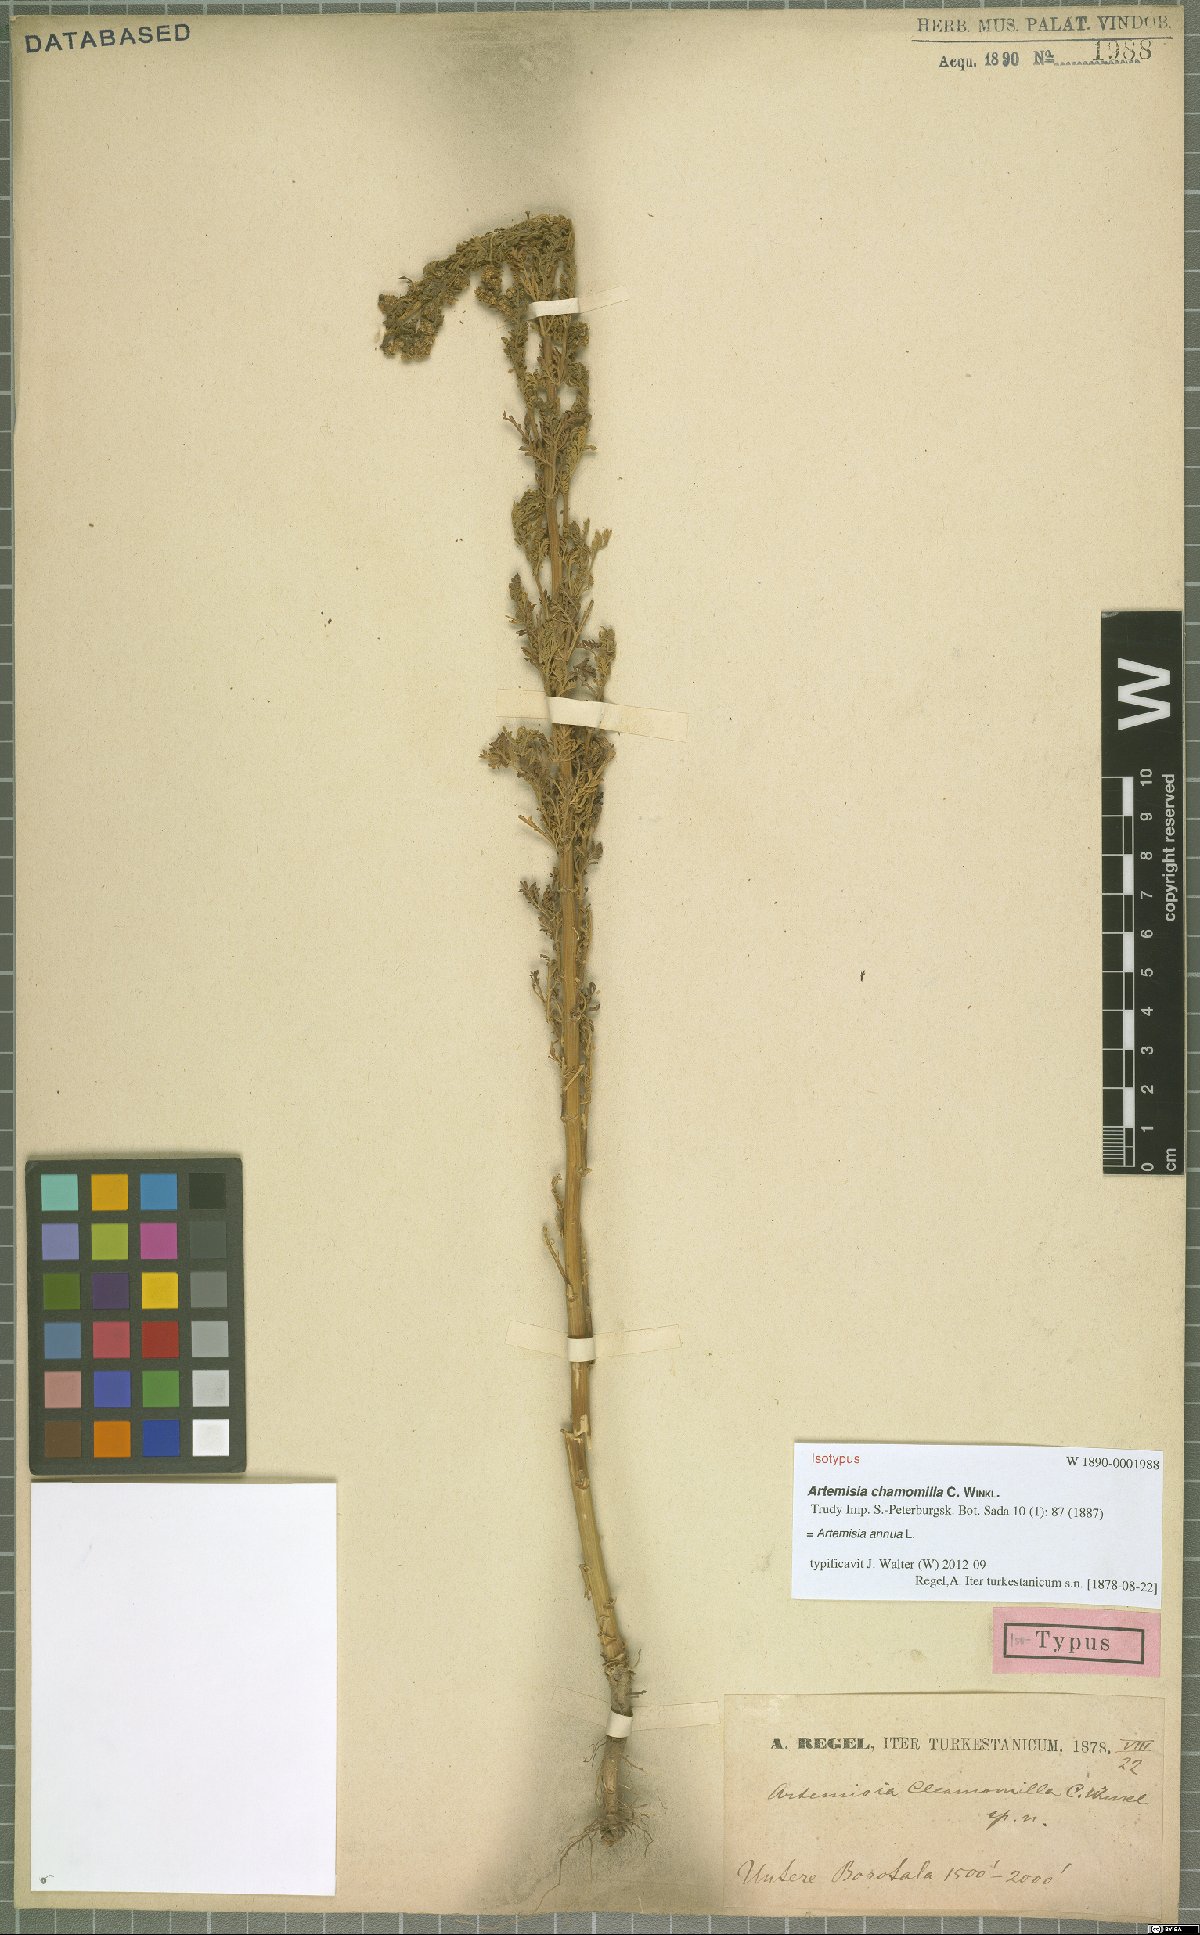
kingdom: Plantae
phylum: Tracheophyta
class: Magnoliopsida
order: Asterales
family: Asteraceae
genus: Artemisia
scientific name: Artemisia annua
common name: Sweet sagewort
